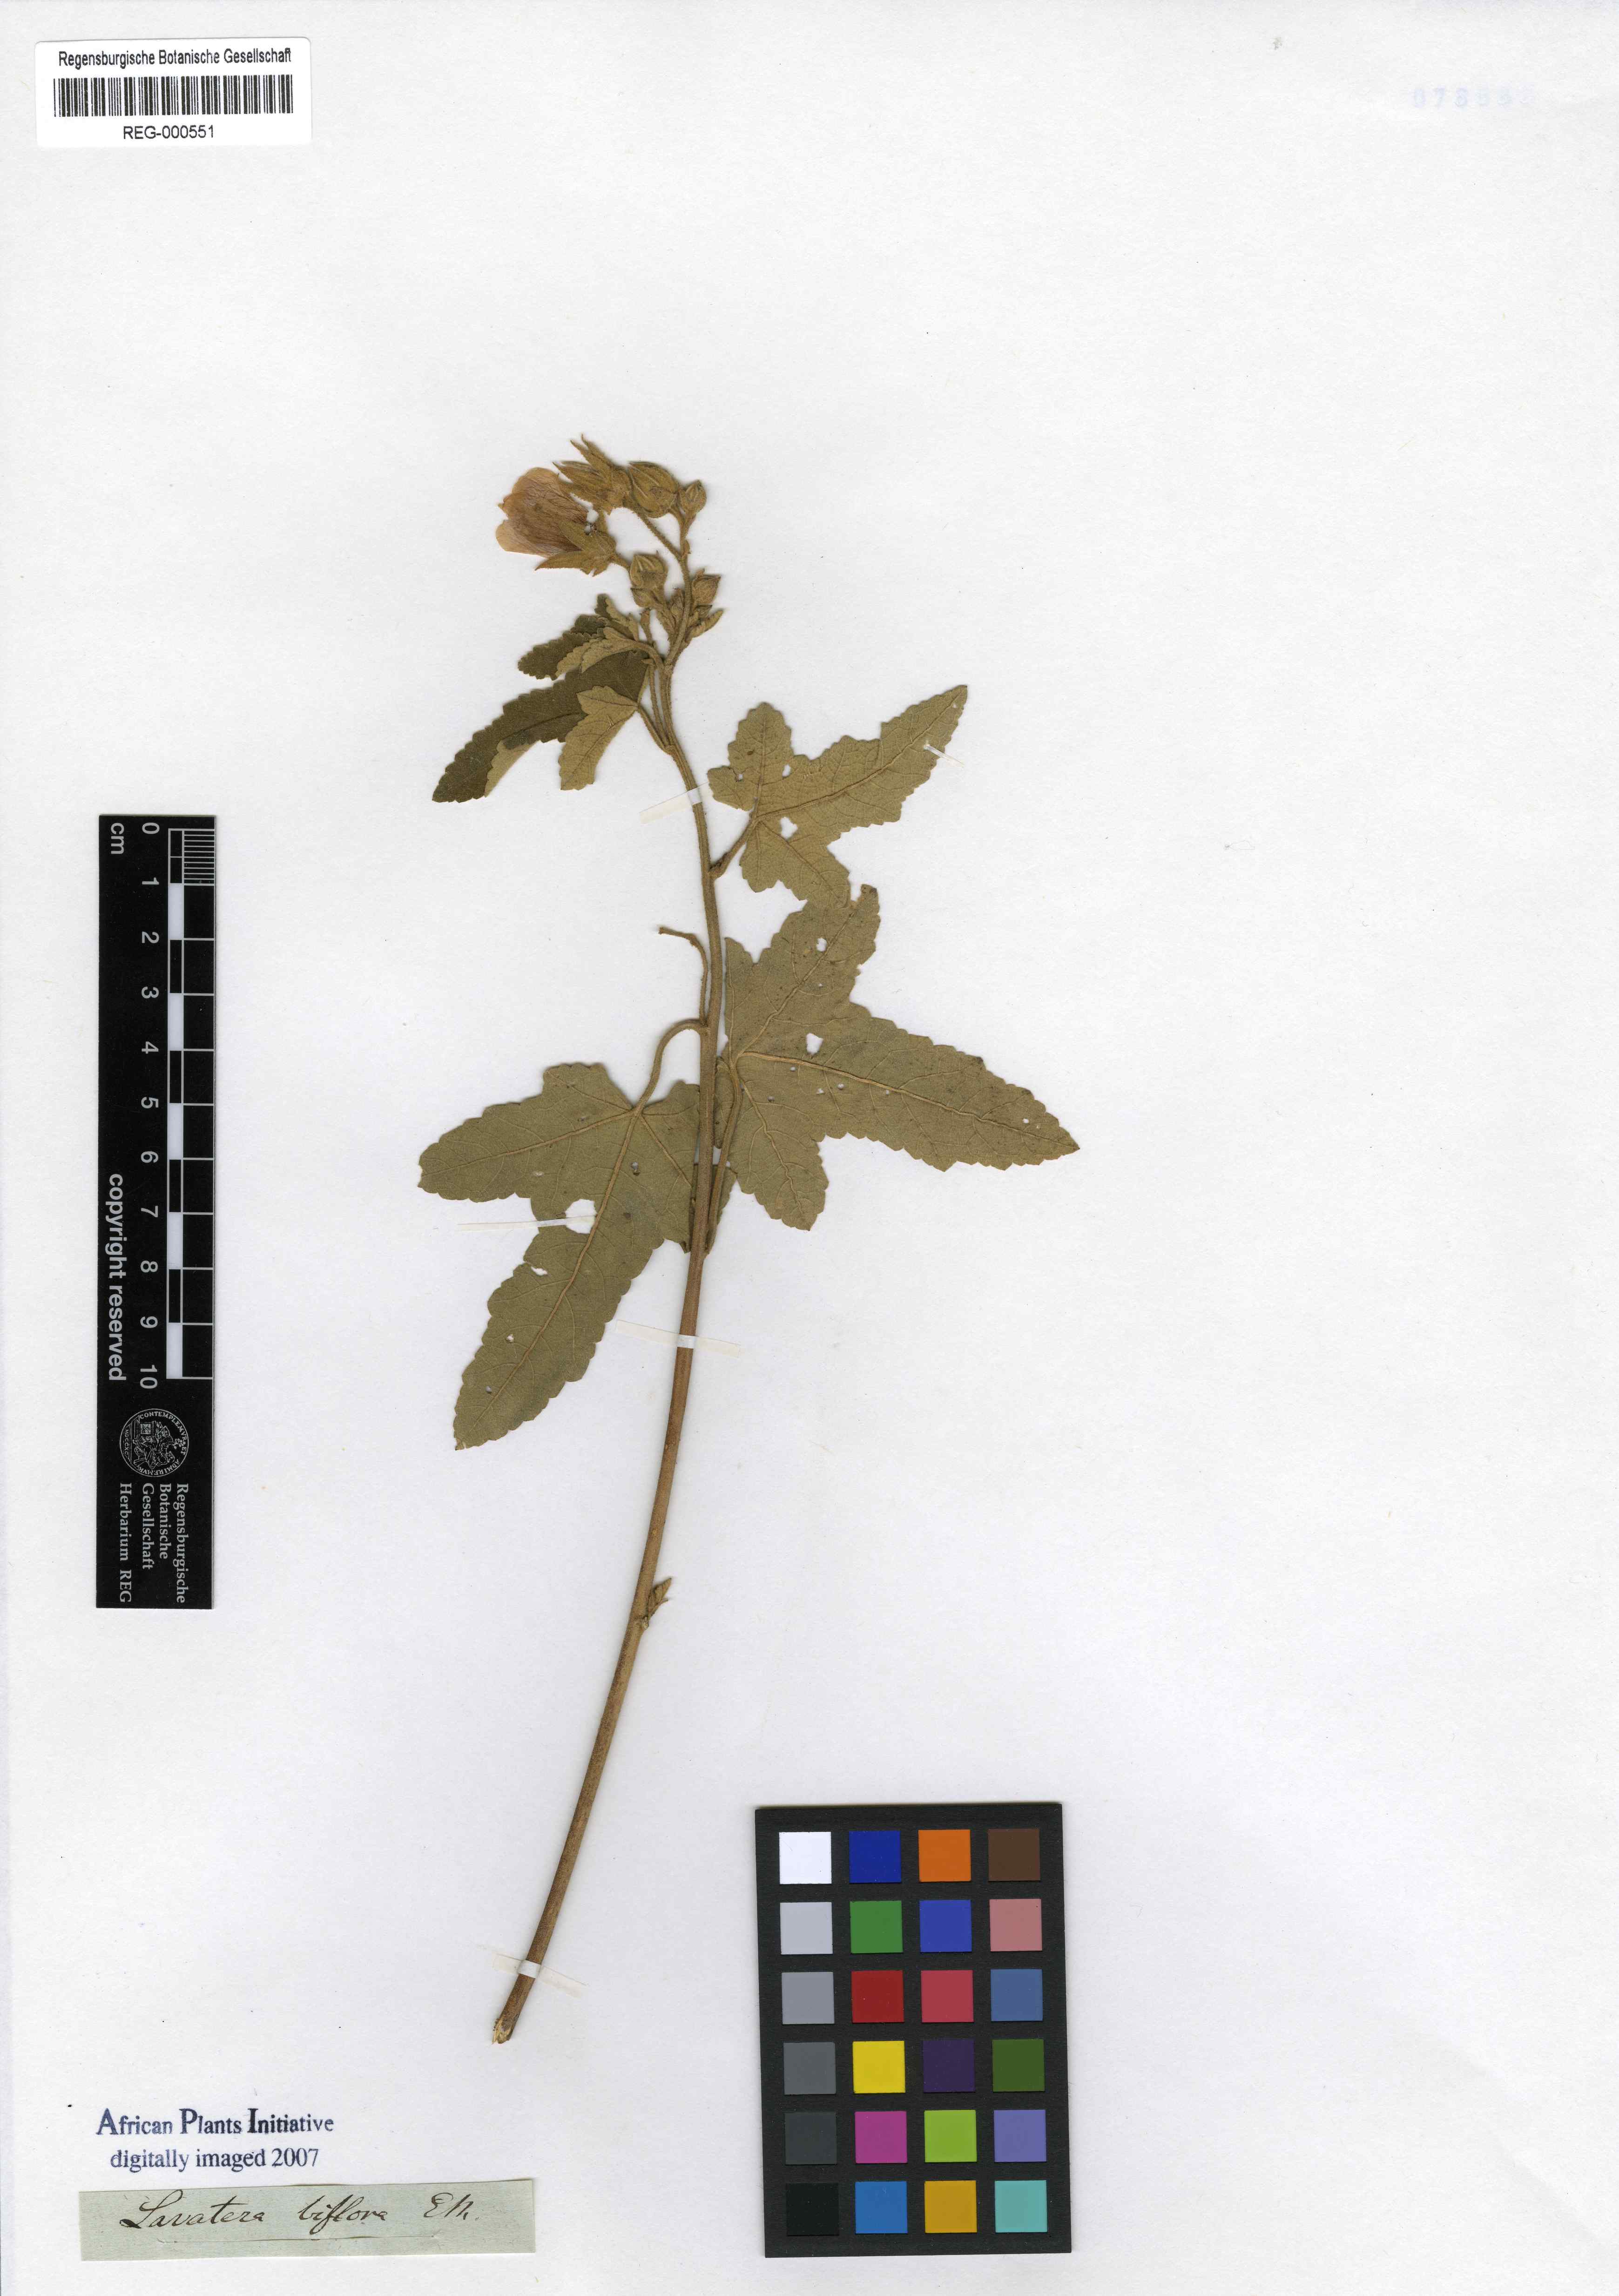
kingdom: Plantae
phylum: Tracheophyta
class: Magnoliopsida
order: Malvales
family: Malvaceae
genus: Anisodontea
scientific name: Anisodontea julii
